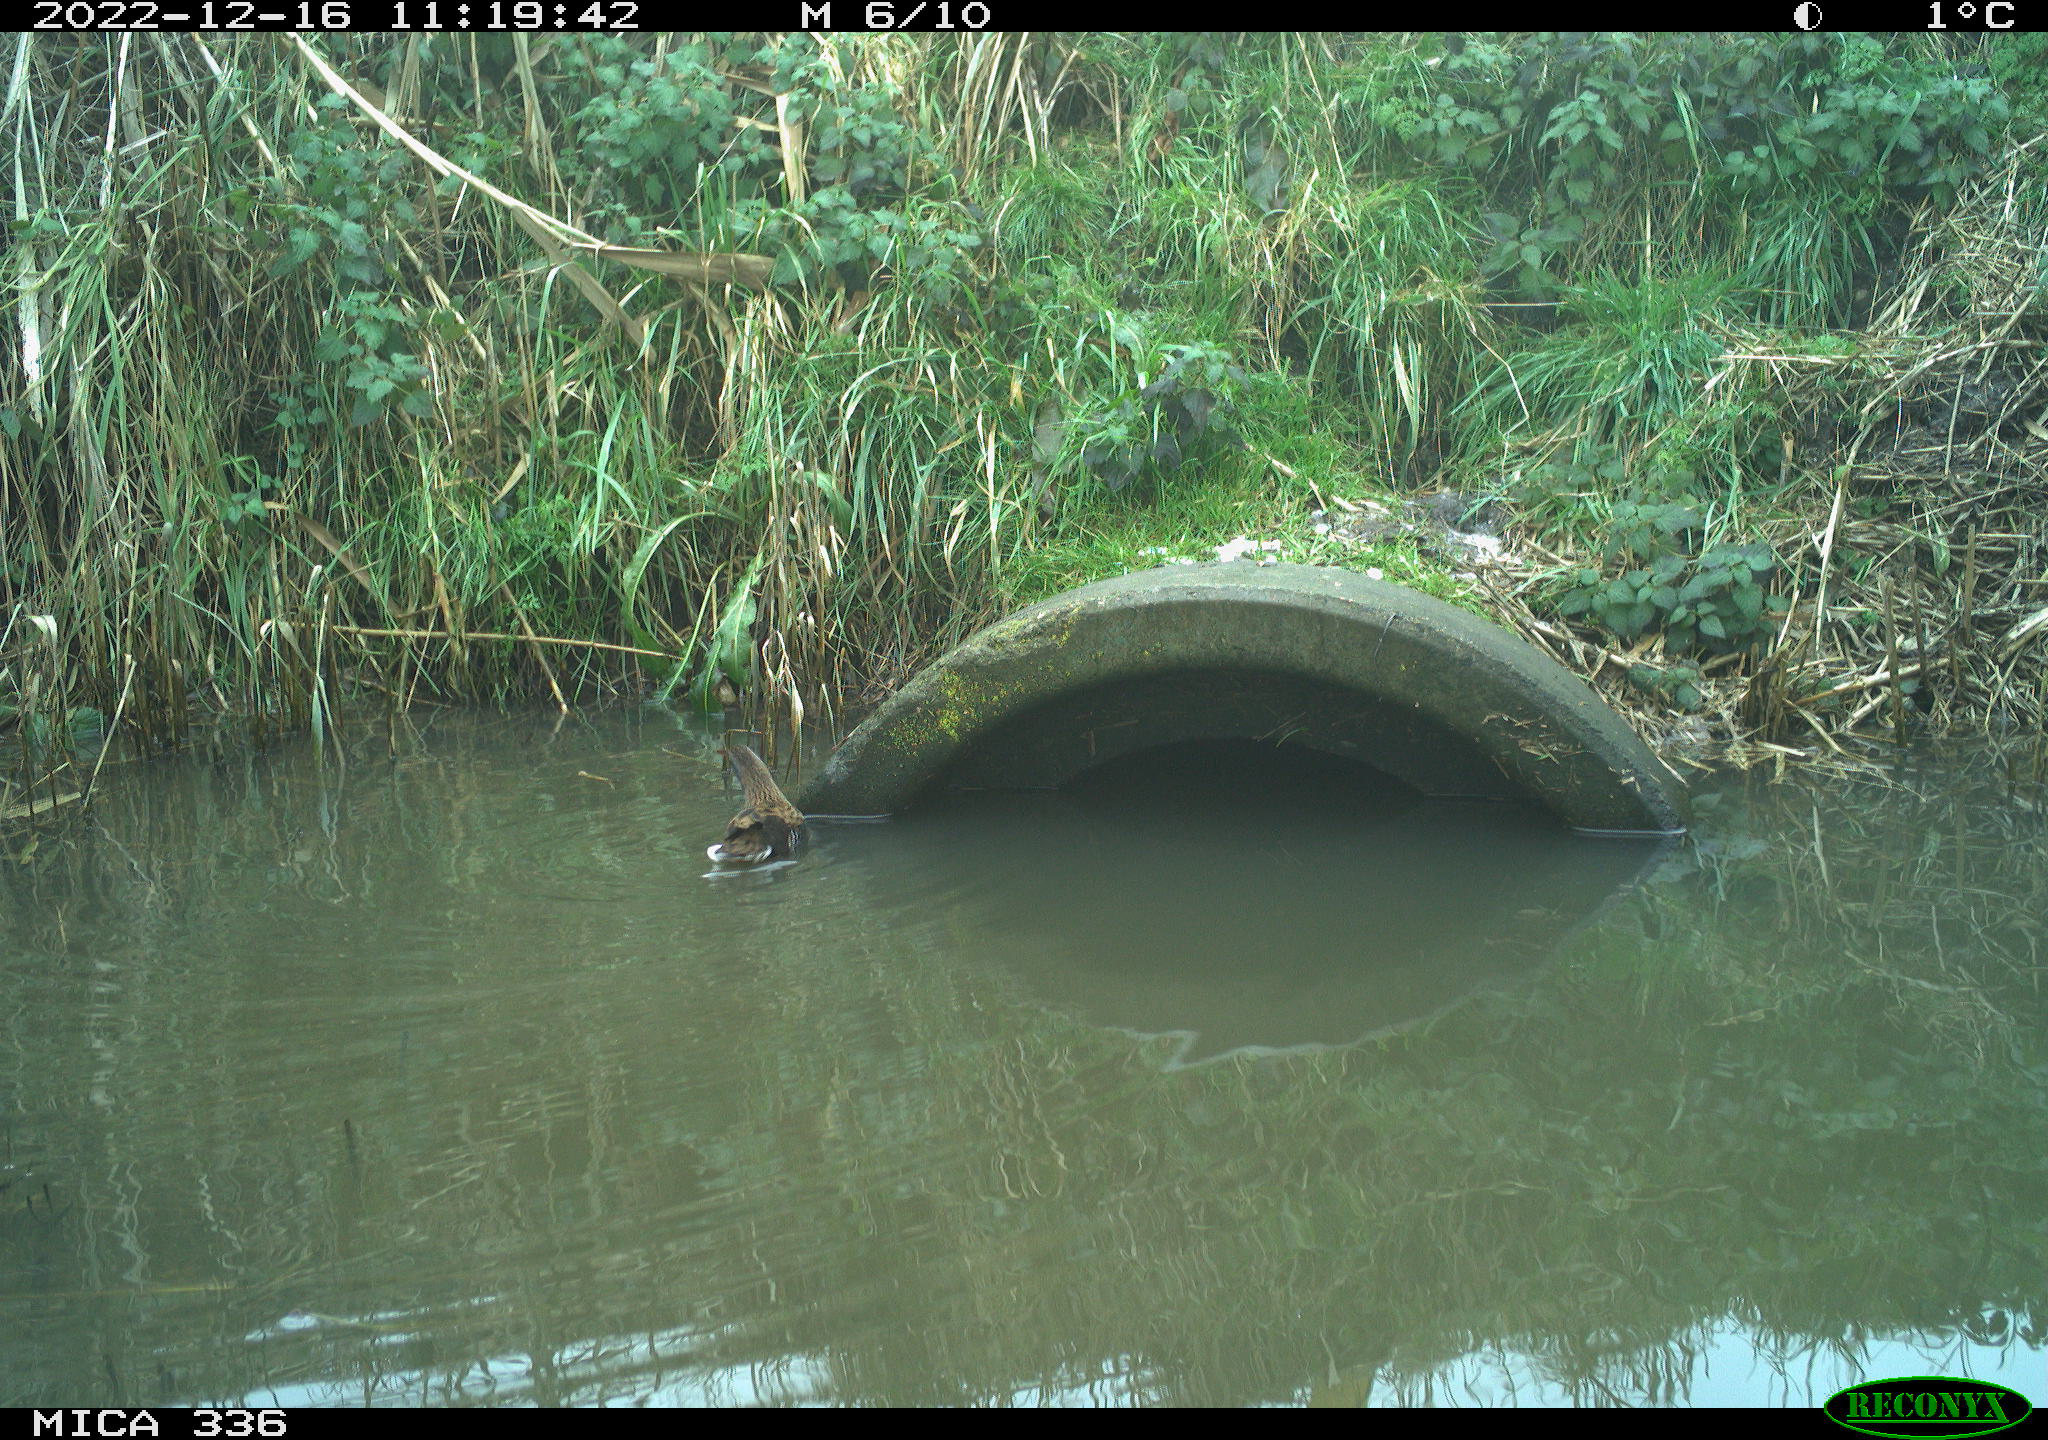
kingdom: Animalia
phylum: Chordata
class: Aves
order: Gruiformes
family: Rallidae
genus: Rallus
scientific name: Rallus aquaticus
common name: Water rail
